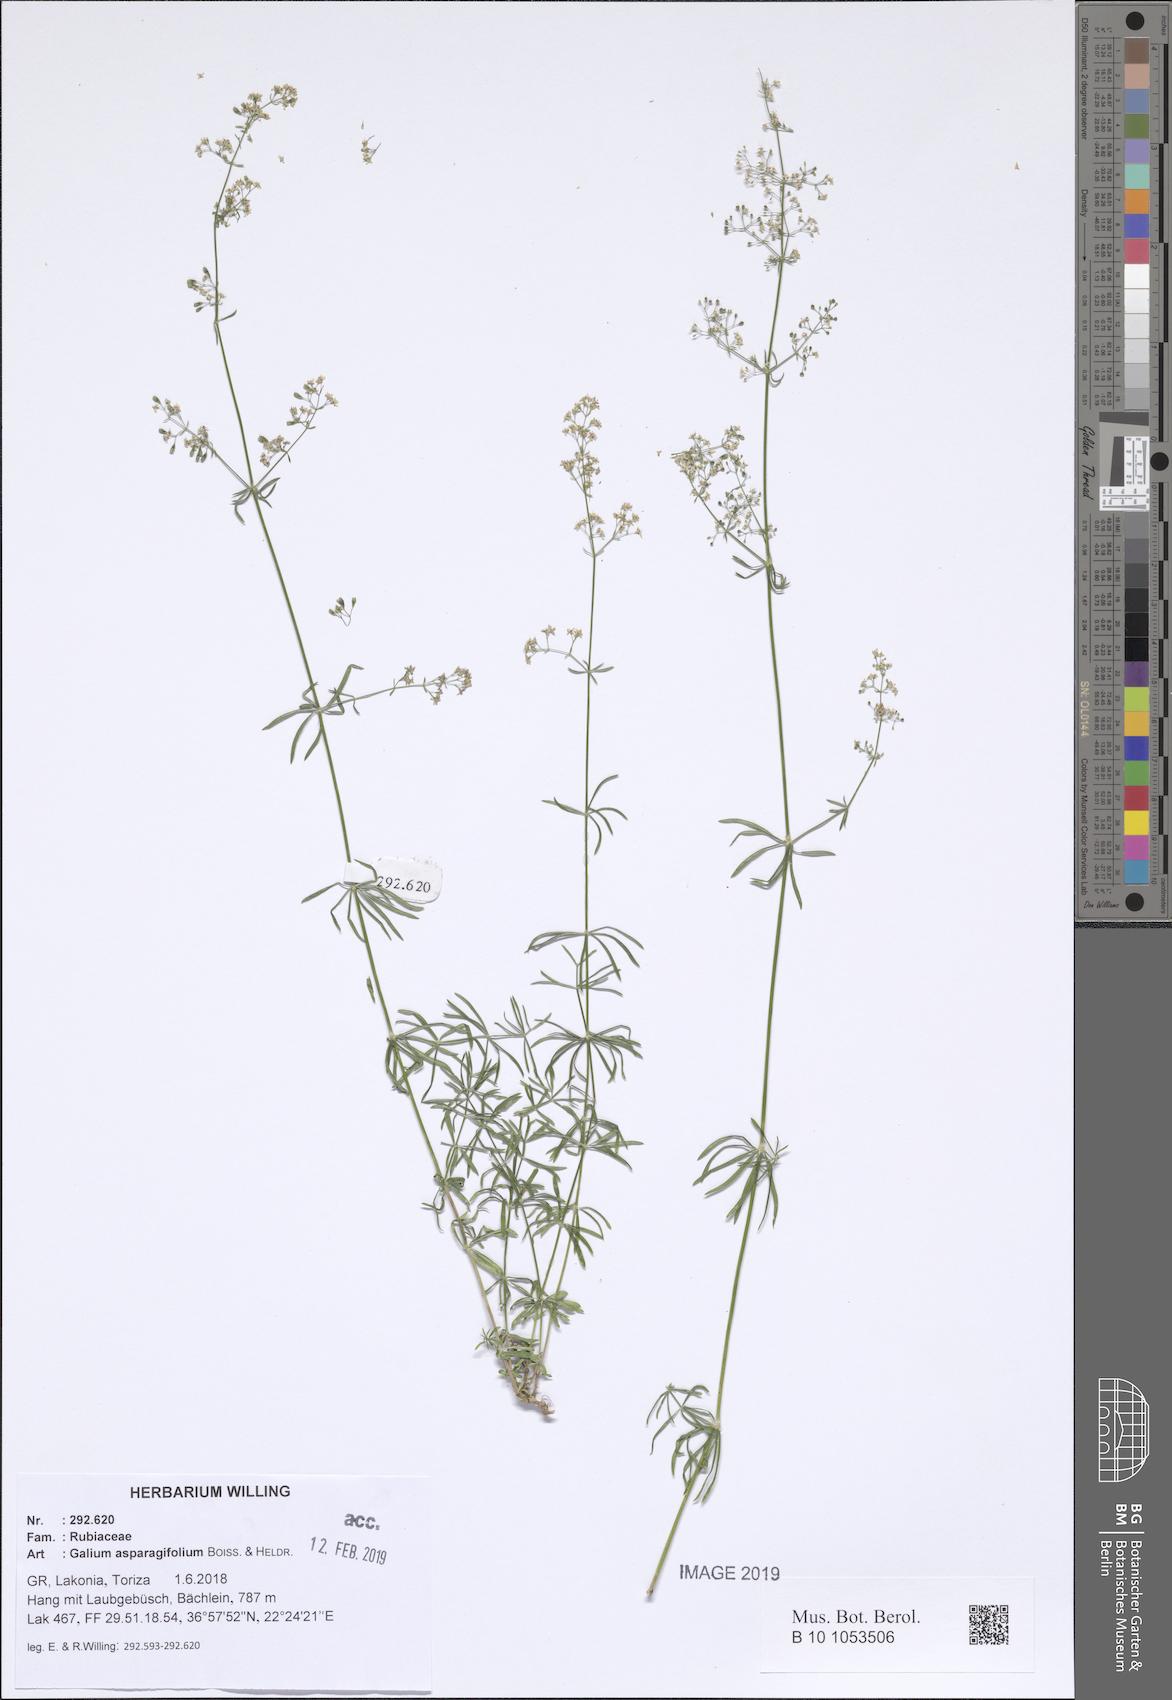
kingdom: Plantae
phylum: Tracheophyta
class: Magnoliopsida
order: Gentianales
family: Rubiaceae
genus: Galium
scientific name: Galium asparagifolium
